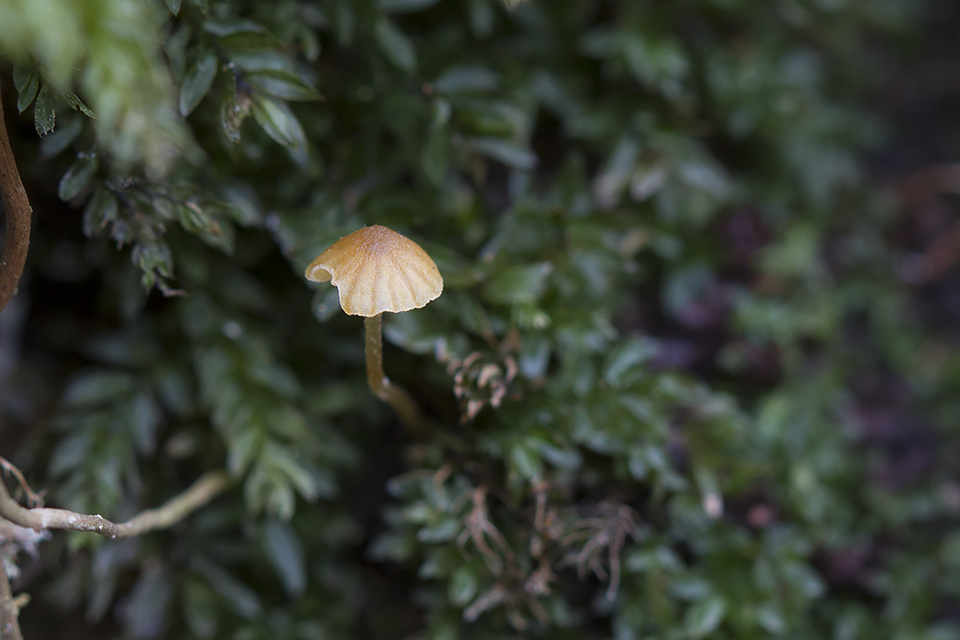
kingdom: Fungi
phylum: Basidiomycota
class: Agaricomycetes
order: Agaricales
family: Hymenogastraceae
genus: Galerina
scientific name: Galerina hypnorum
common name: mos-hjelmhat
